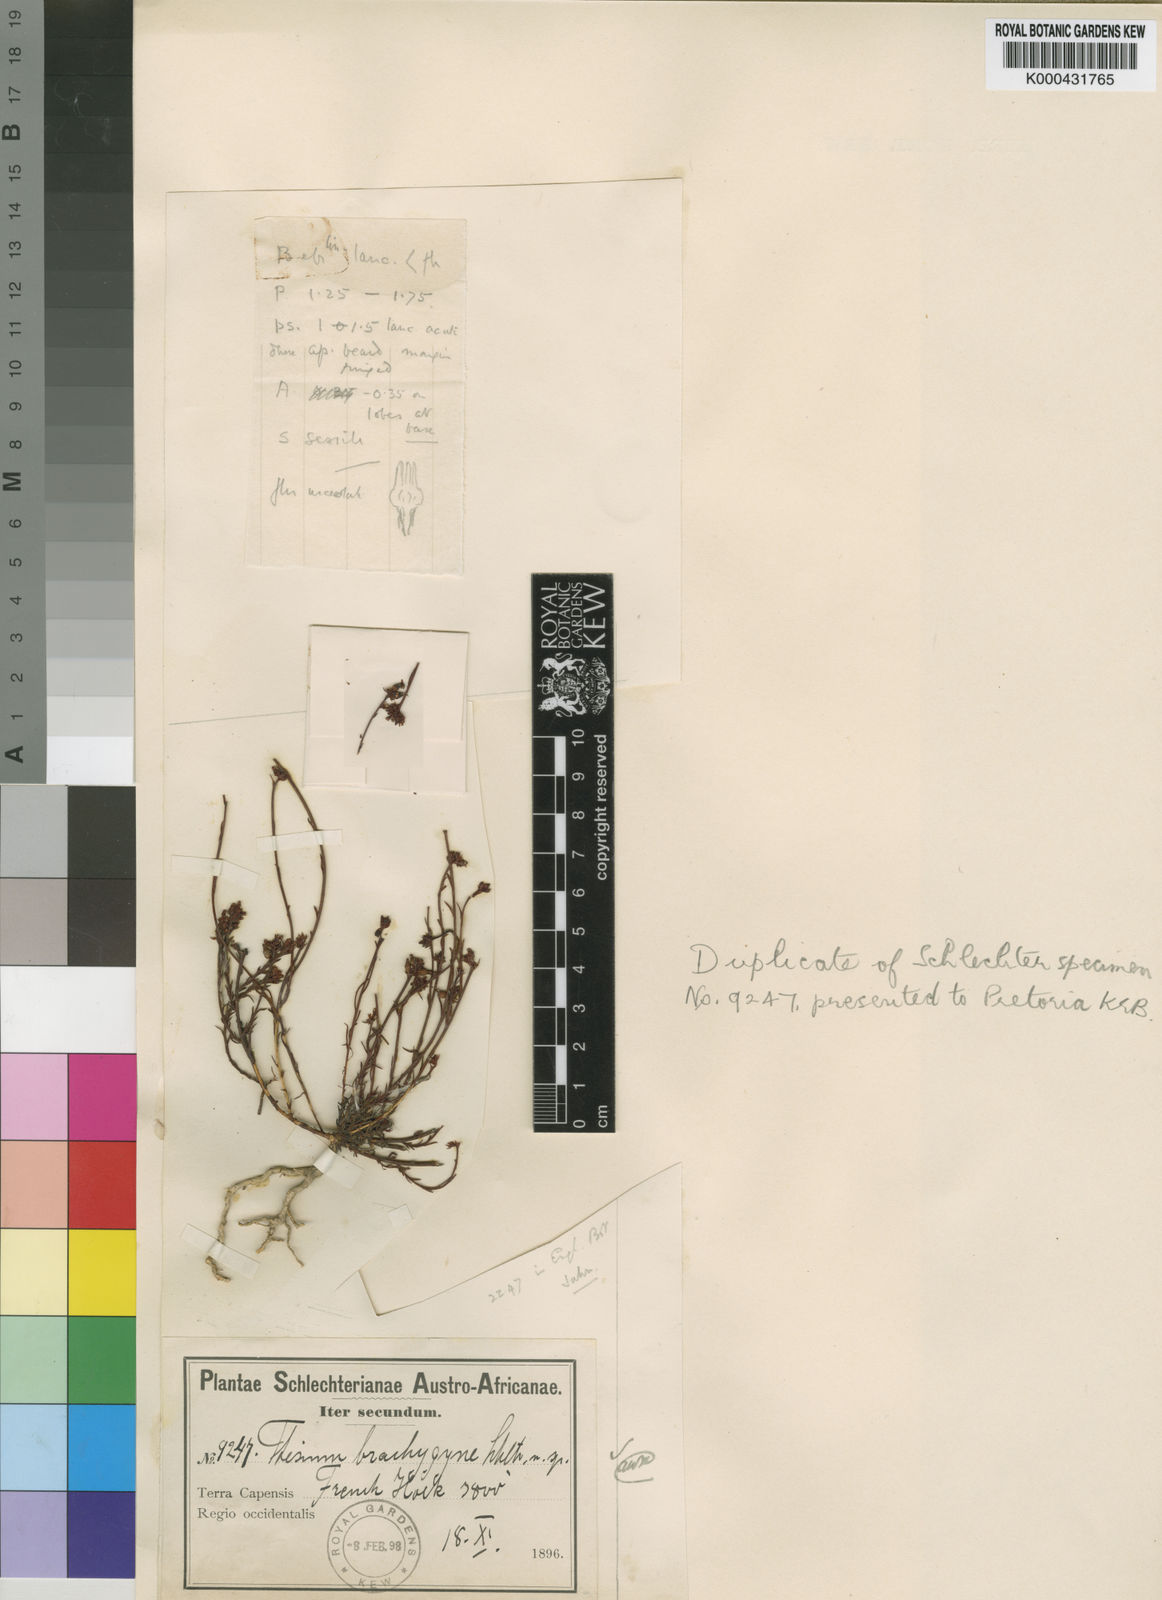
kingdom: Plantae
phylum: Tracheophyta
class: Magnoliopsida
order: Santalales
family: Thesiaceae
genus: Thesium
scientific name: Thesium brachygyne
